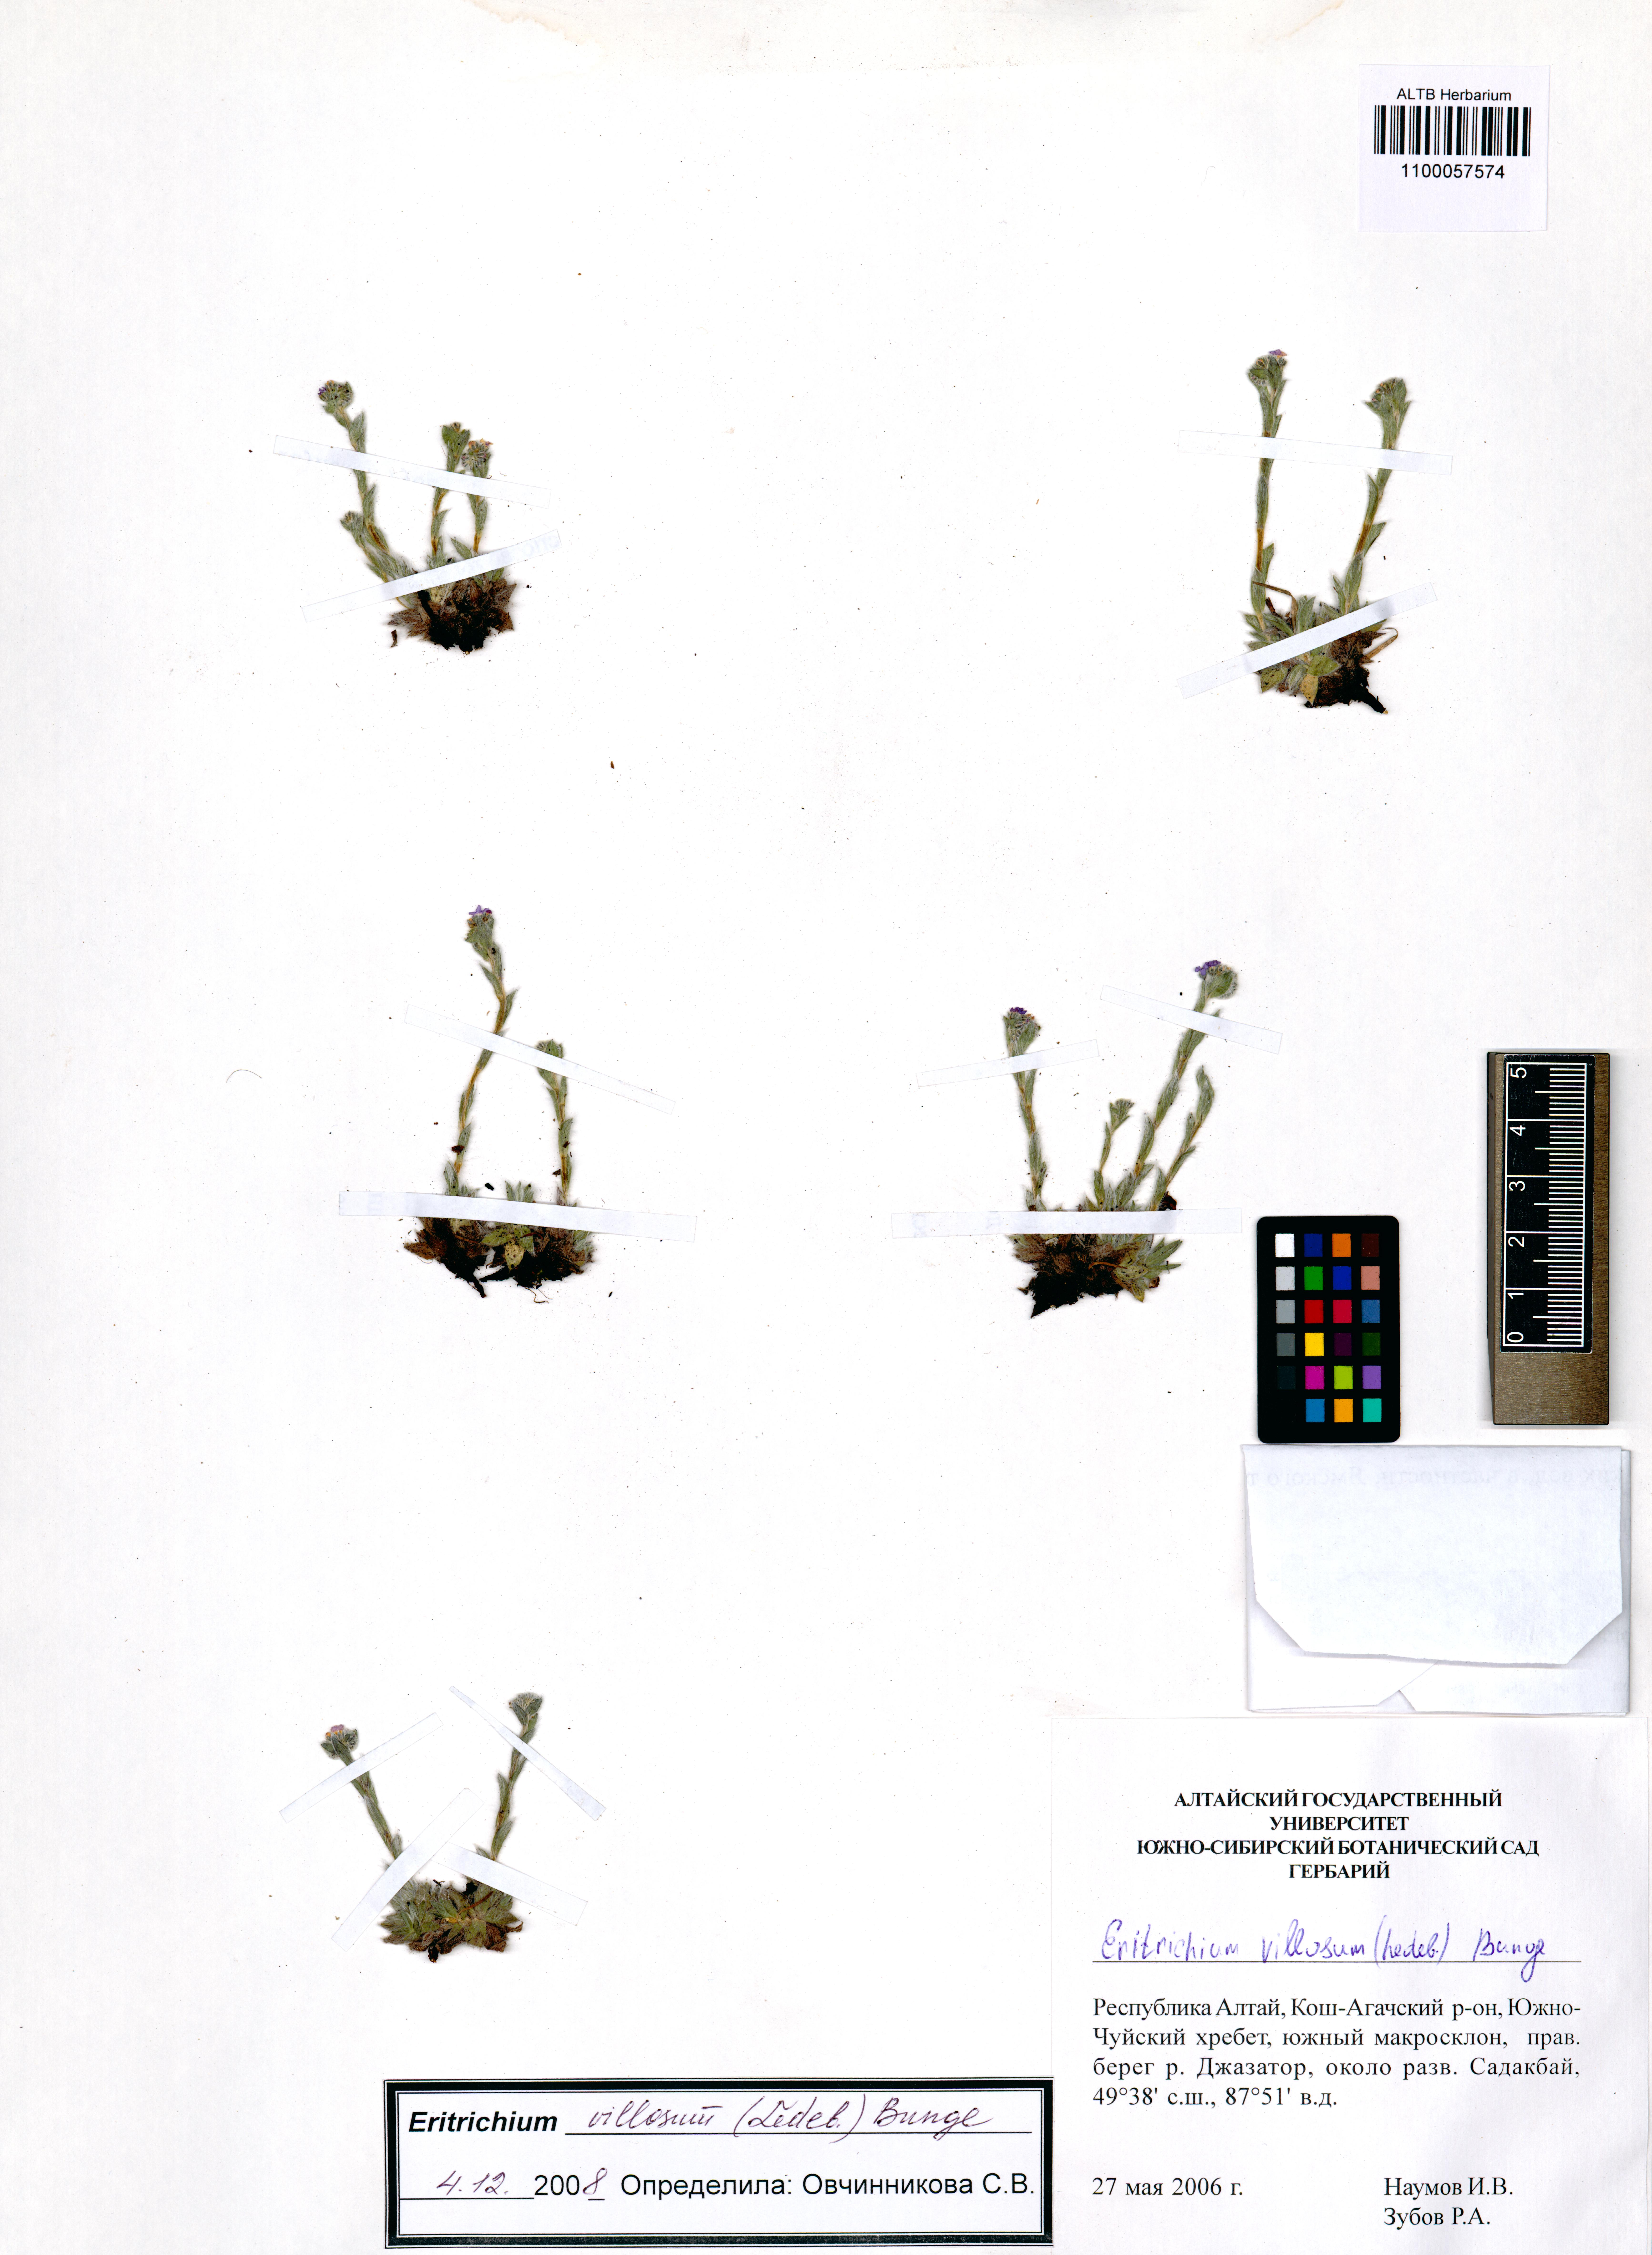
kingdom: Plantae
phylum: Tracheophyta
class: Magnoliopsida
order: Boraginales
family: Boraginaceae
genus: Eritrichium
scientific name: Eritrichium villosum
